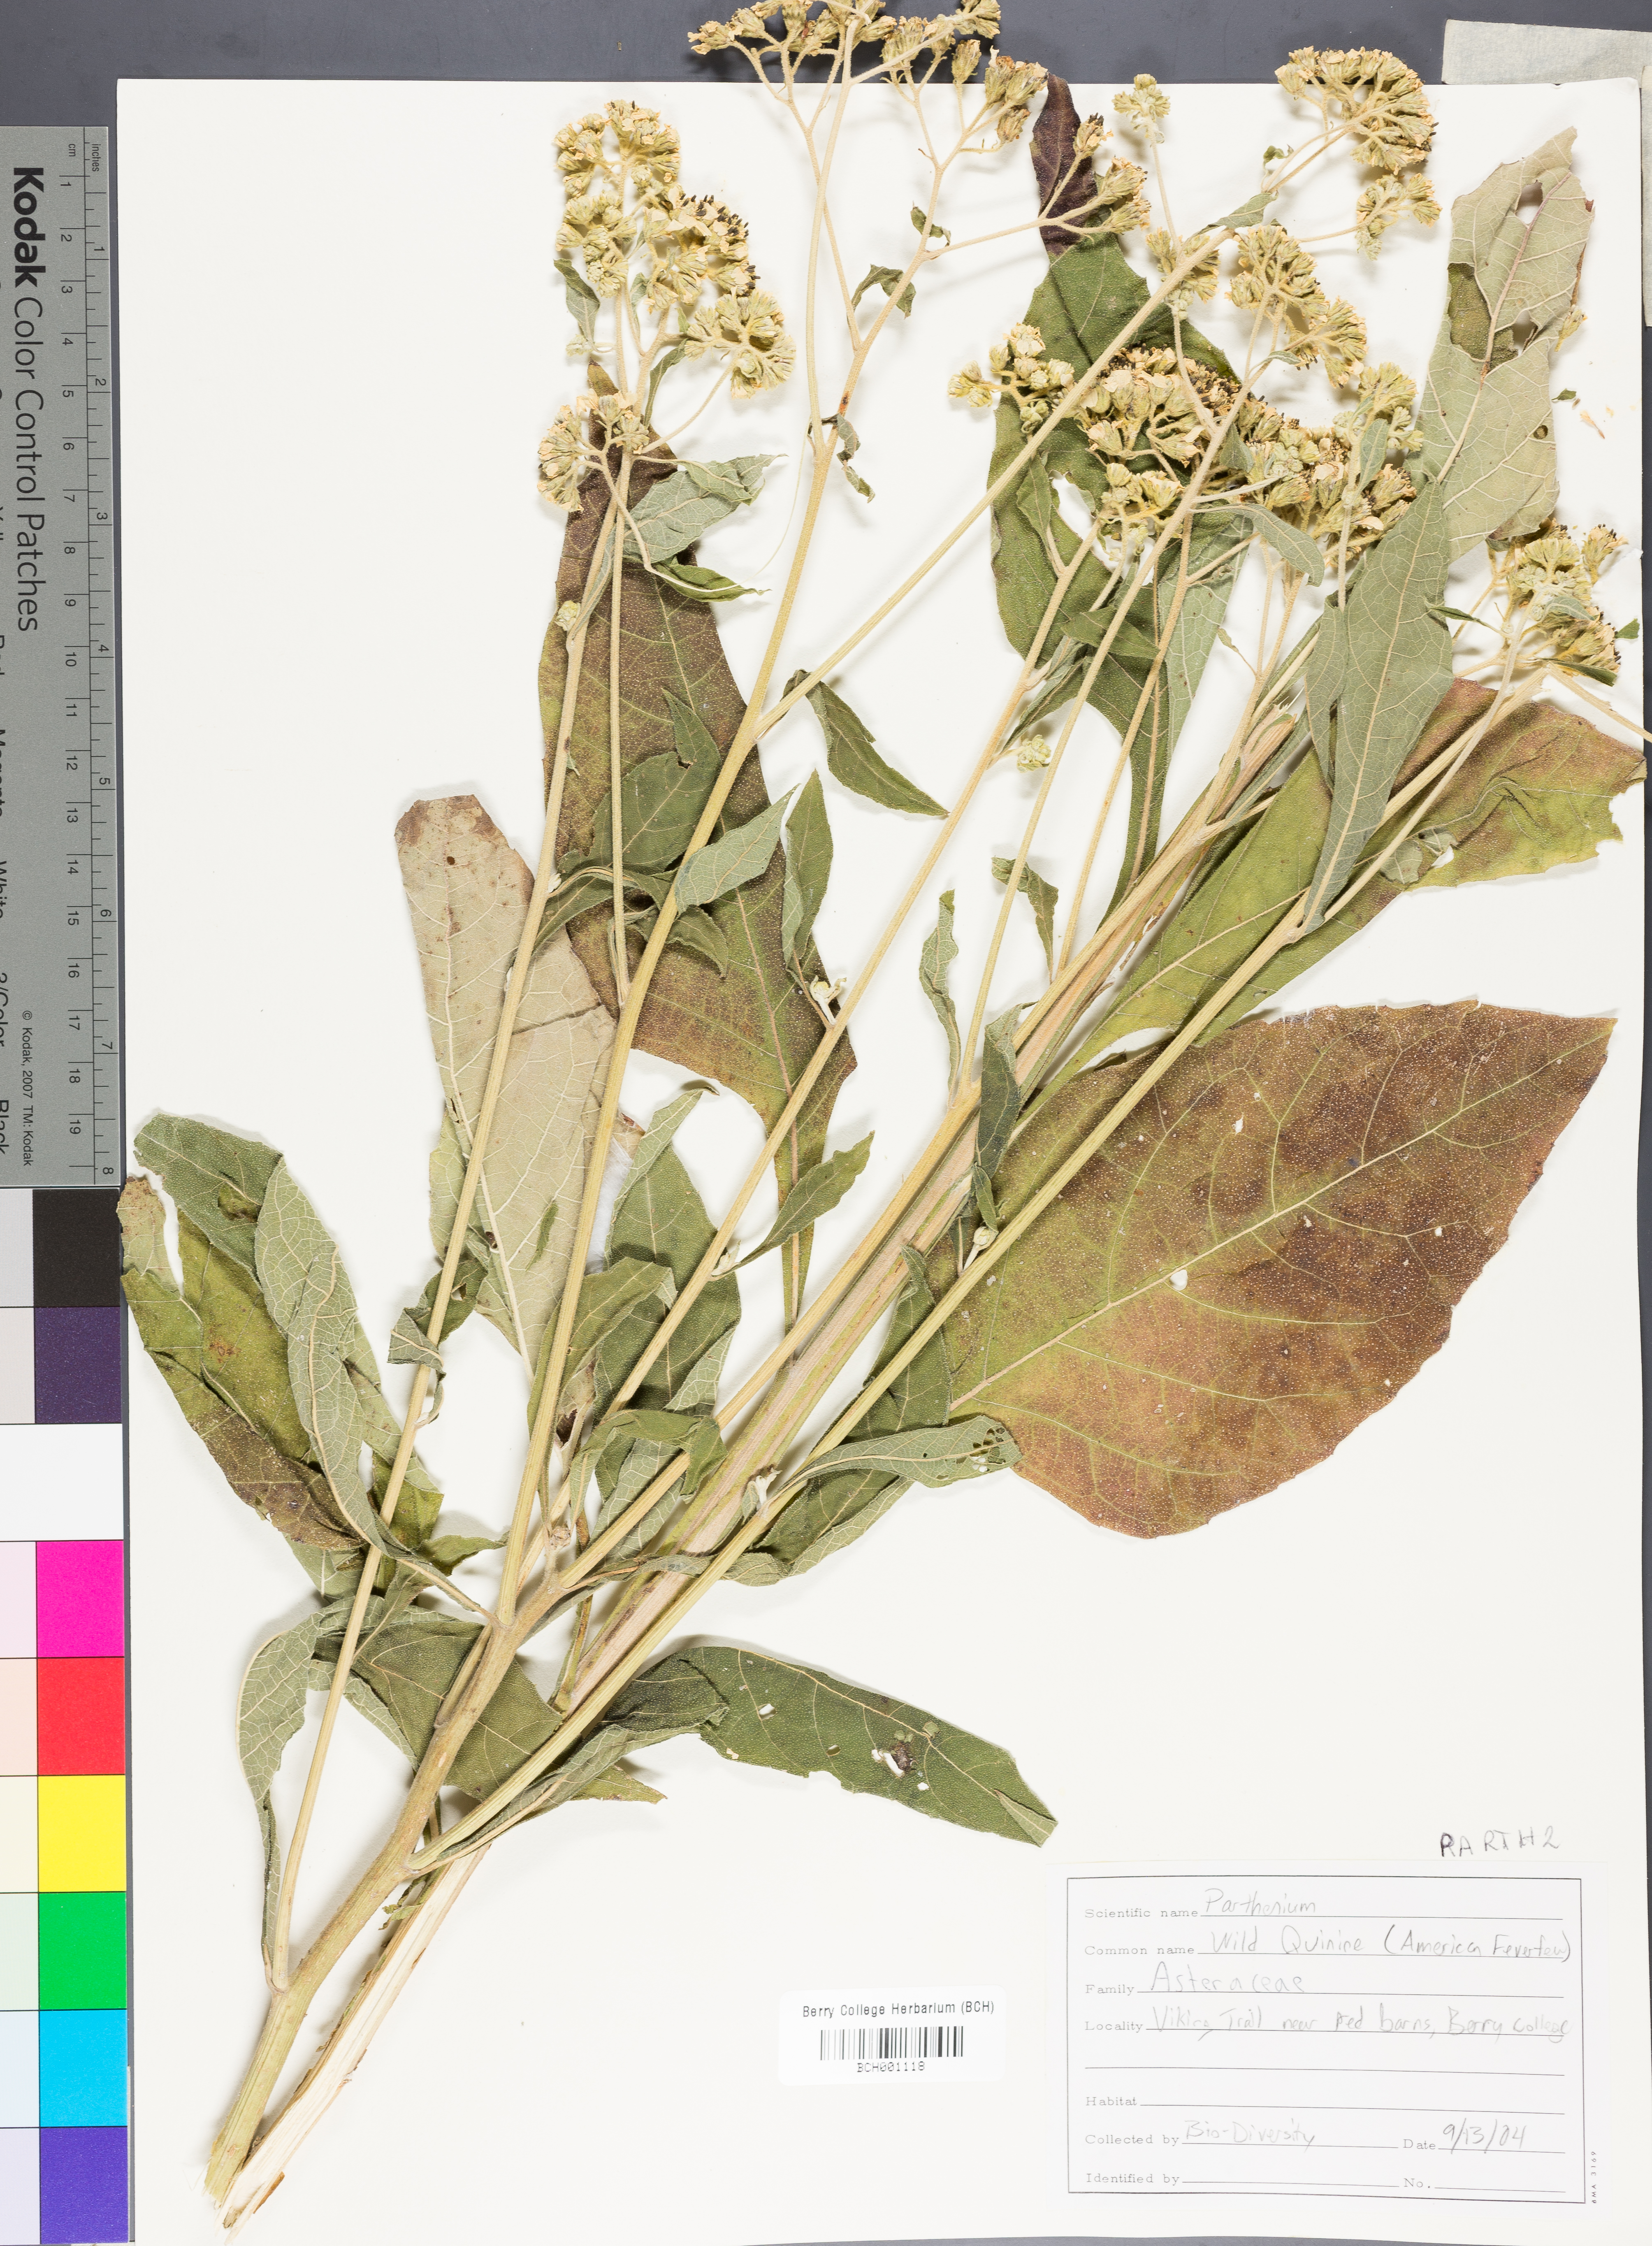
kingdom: Plantae
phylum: Tracheophyta
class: Magnoliopsida
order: Asterales
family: Asteraceae
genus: Parthenium
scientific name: Parthenium
